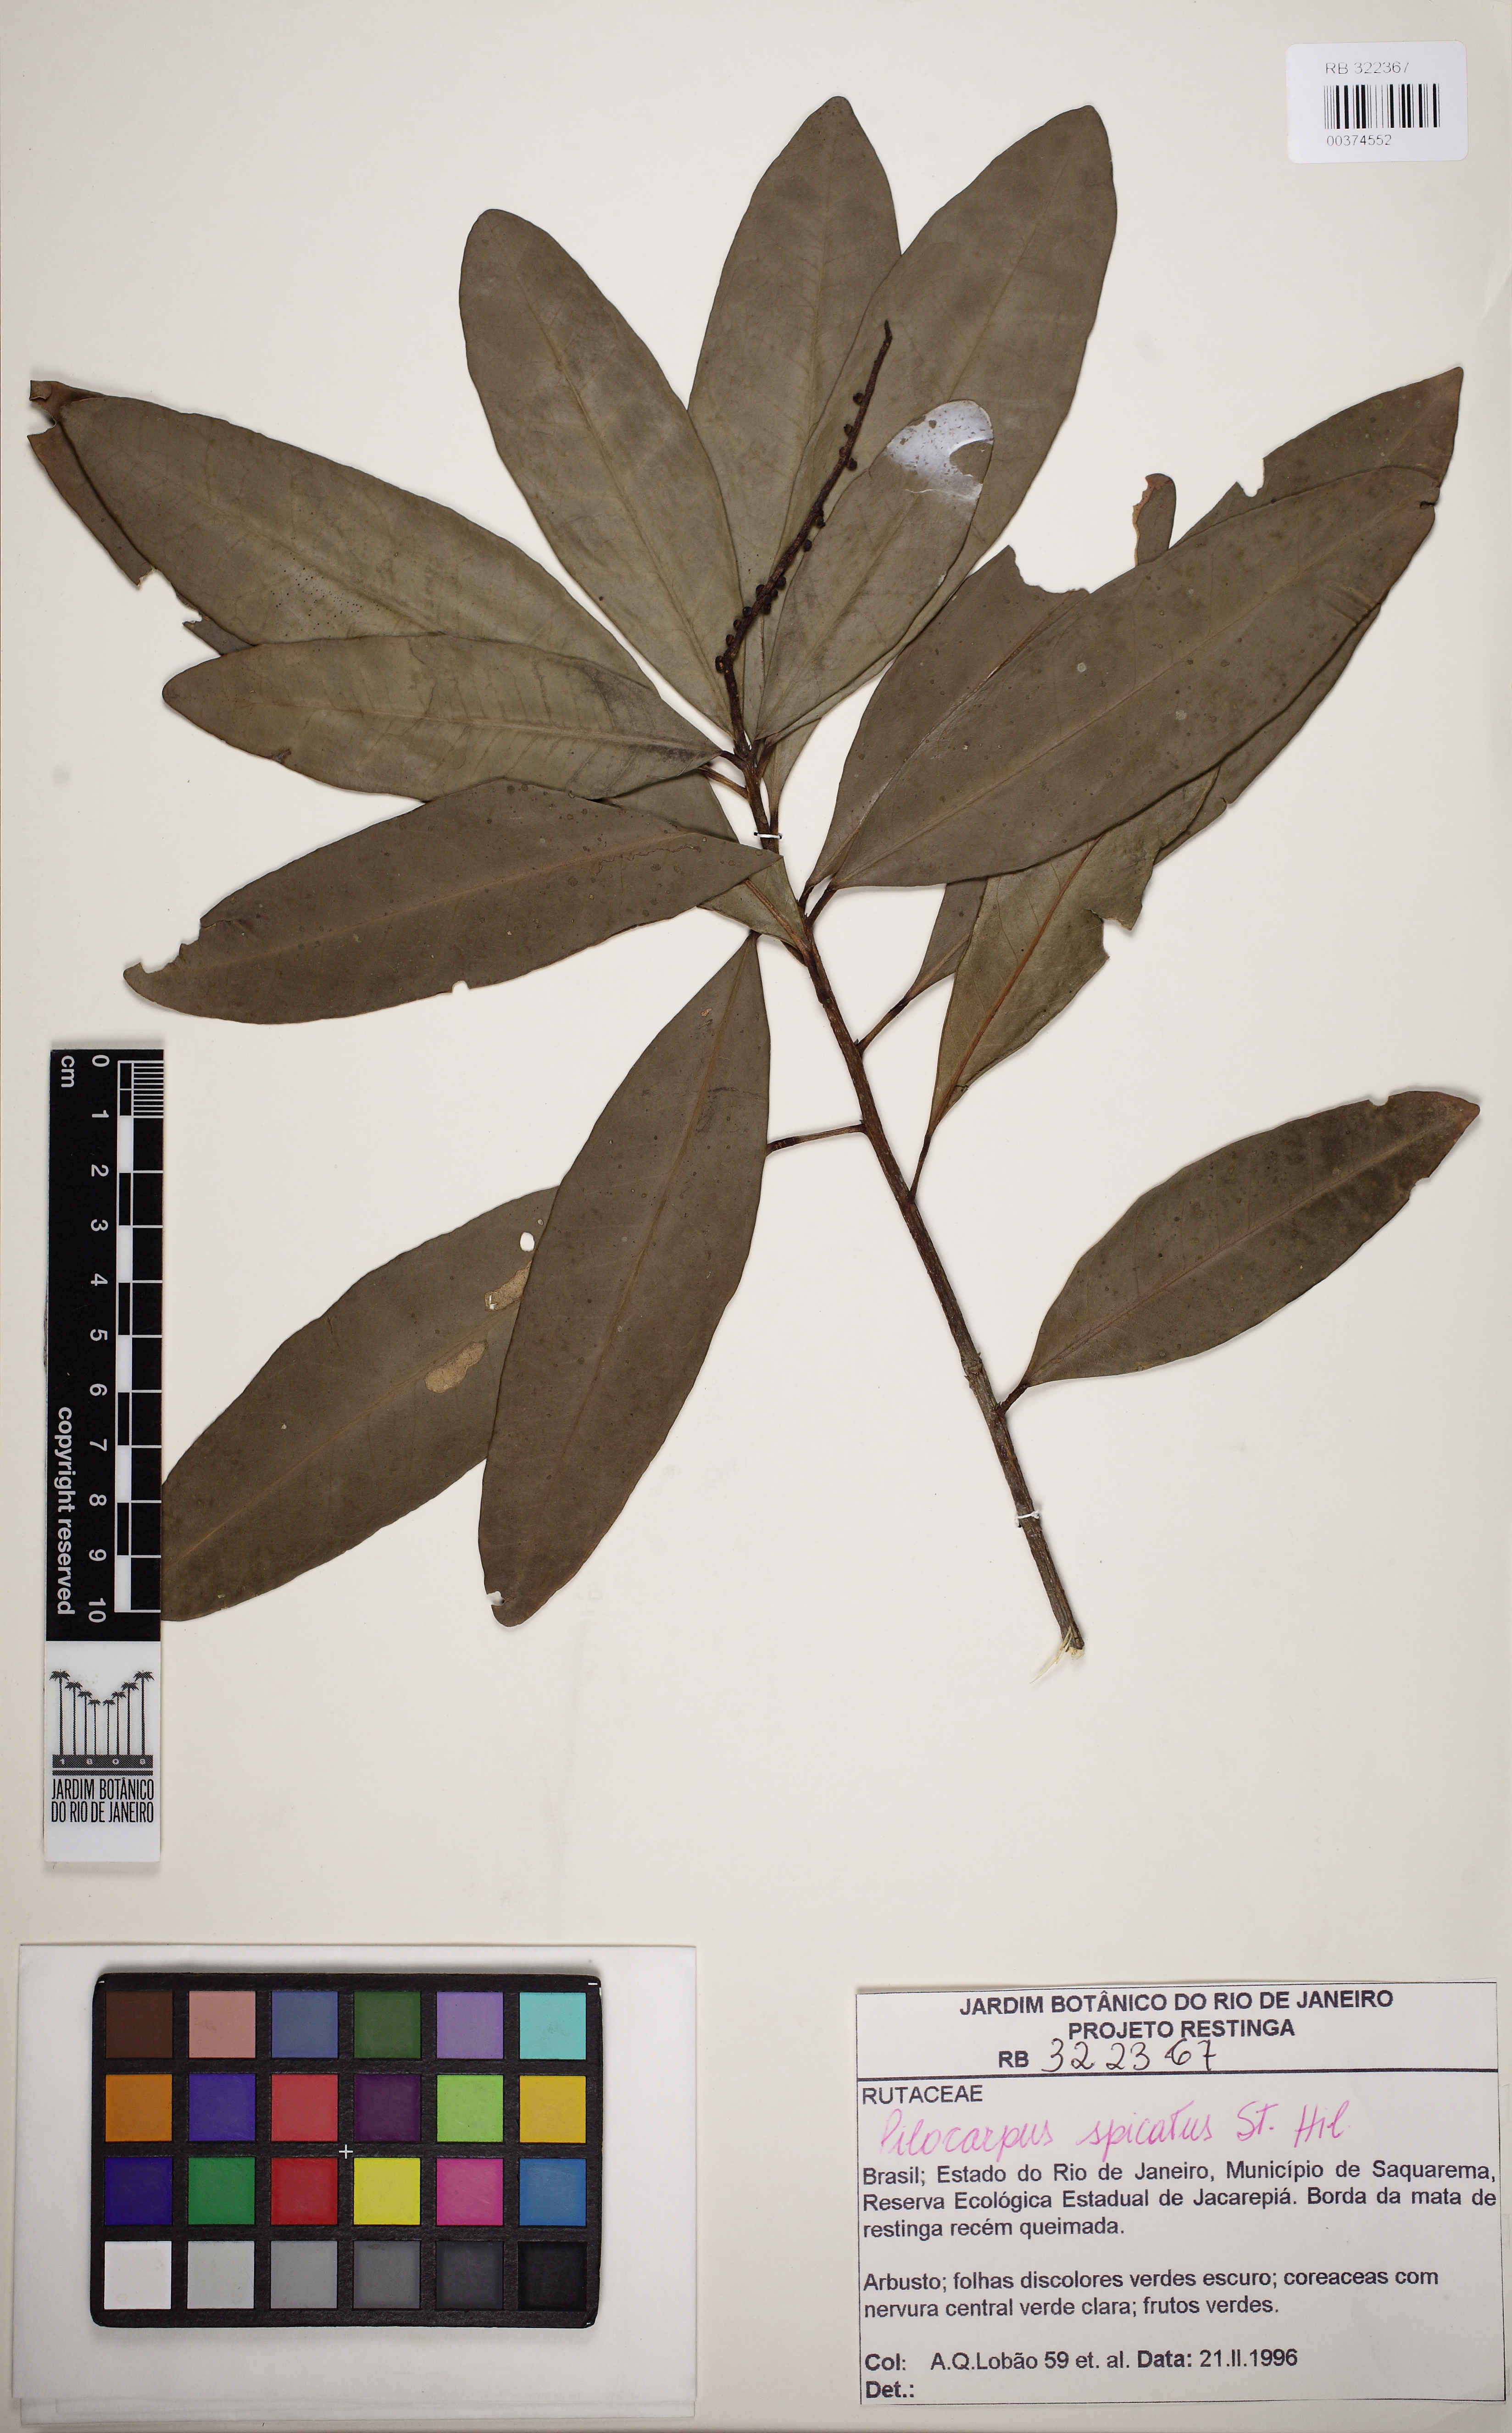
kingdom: Plantae
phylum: Tracheophyta
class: Magnoliopsida
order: Sapindales
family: Rutaceae
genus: Pilocarpus
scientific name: Pilocarpus spicatus
